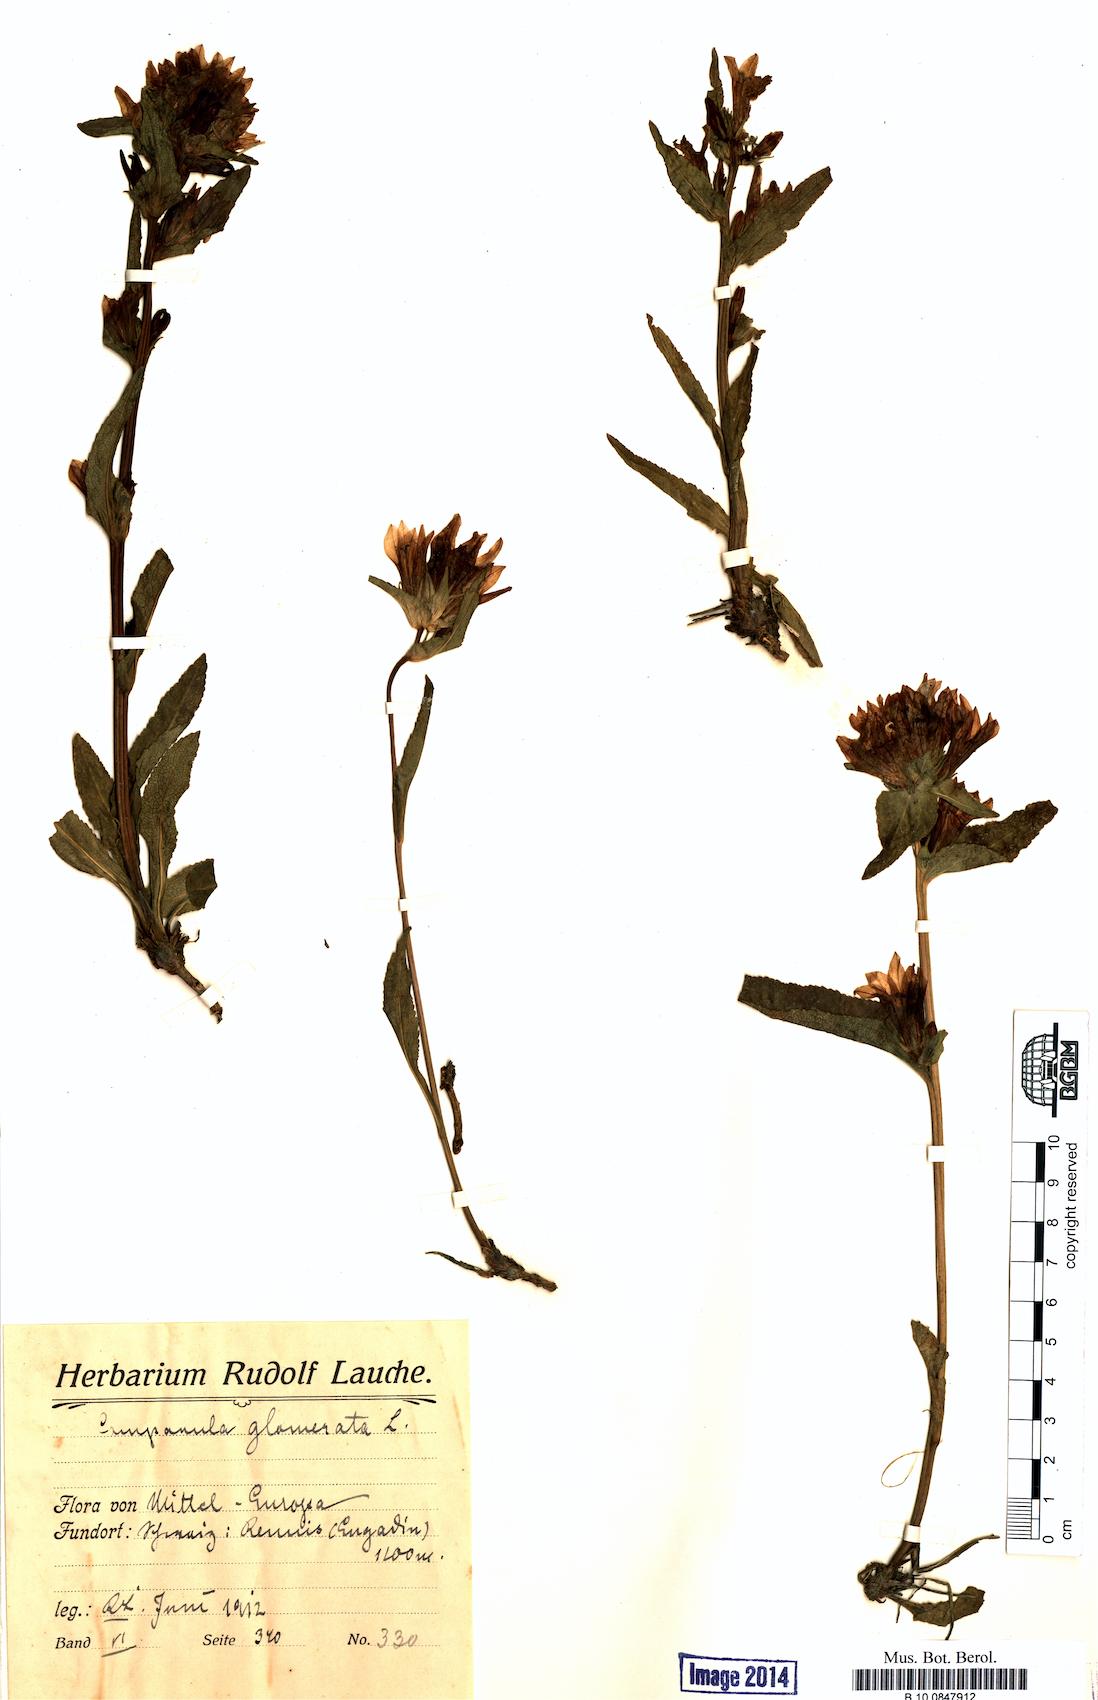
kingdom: Plantae
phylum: Tracheophyta
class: Magnoliopsida
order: Asterales
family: Campanulaceae
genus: Campanula
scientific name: Campanula glomerata
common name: Clustered bellflower
